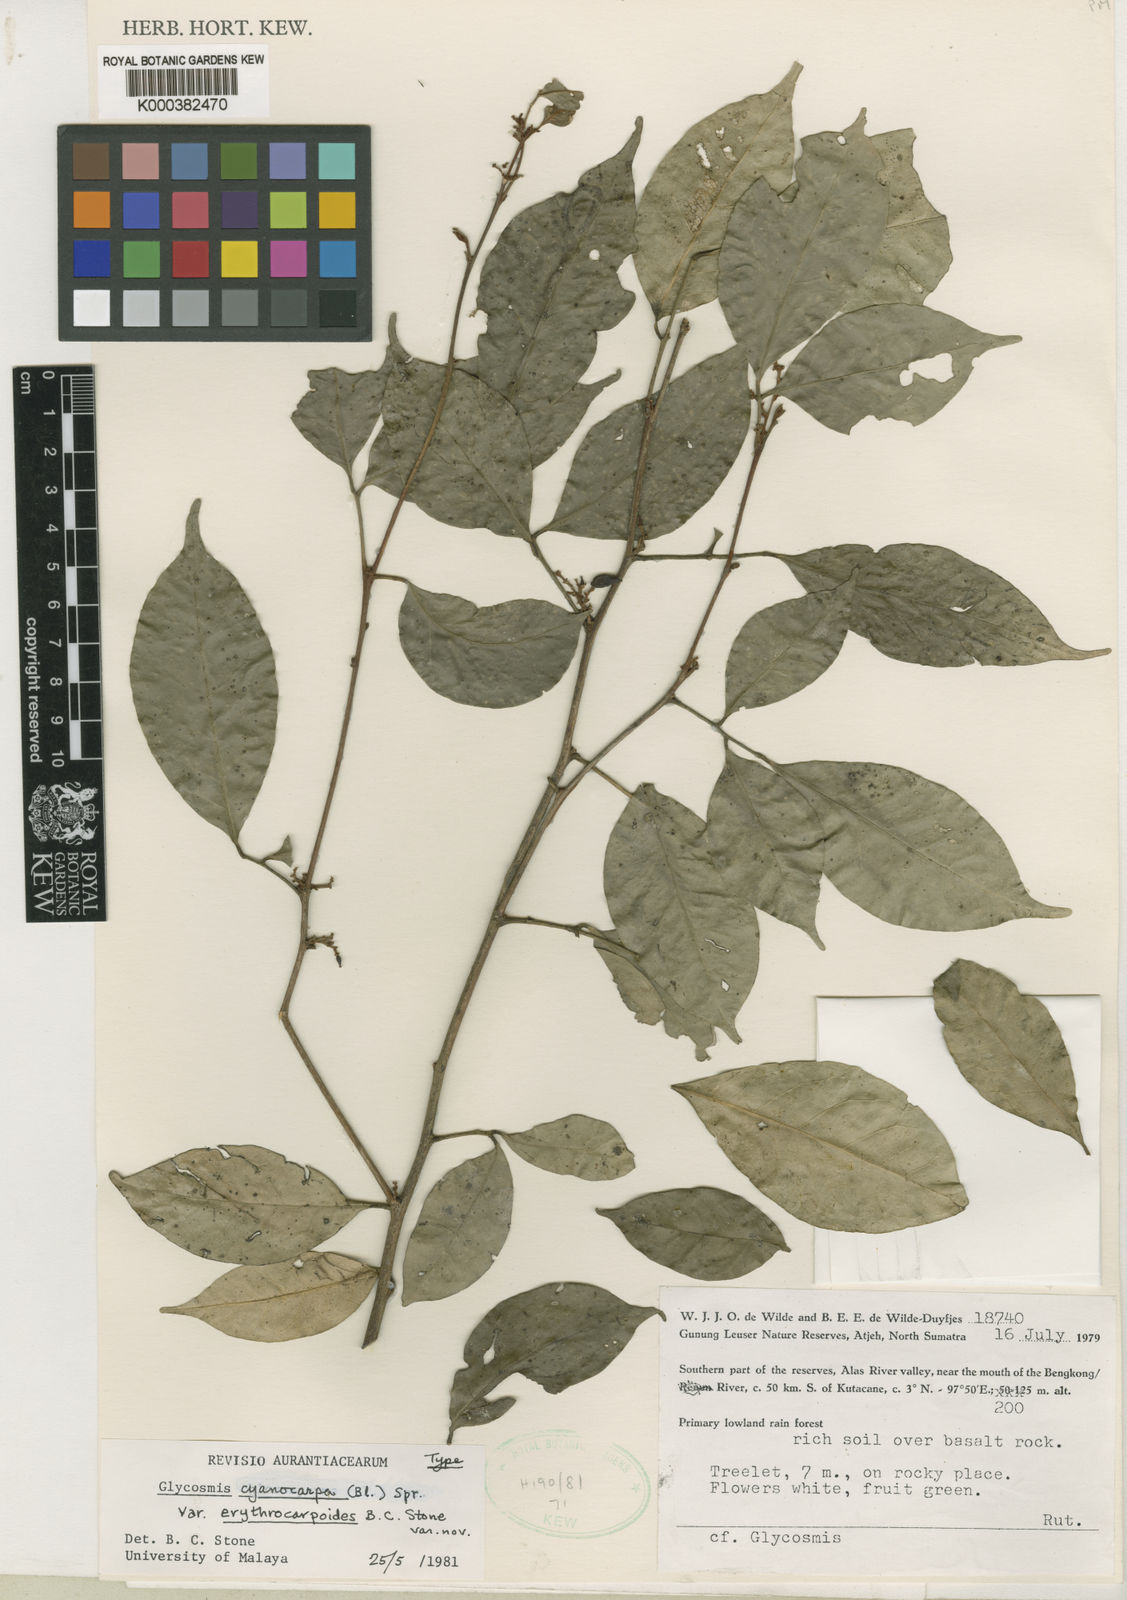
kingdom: Plantae
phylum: Tracheophyta
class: Magnoliopsida
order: Sapindales
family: Rutaceae
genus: Glycosmis
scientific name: Glycosmis cyanocarpa
